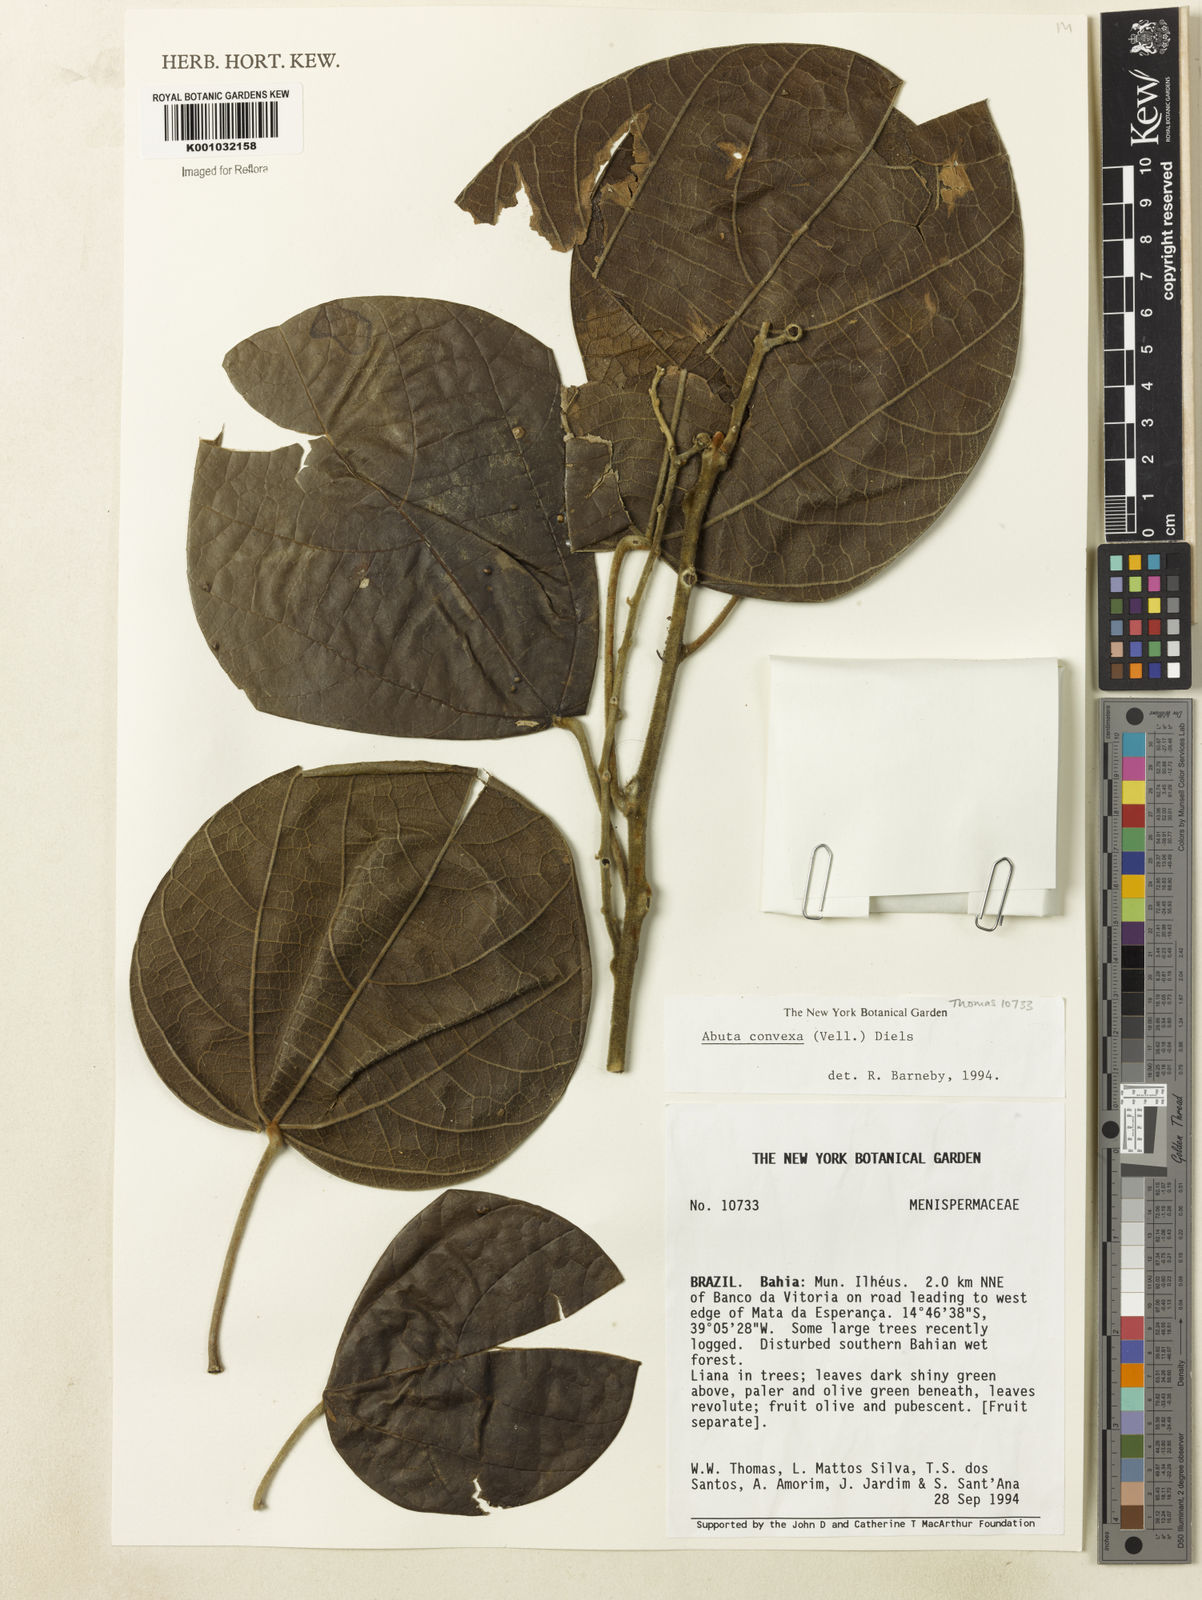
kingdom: Plantae
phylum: Tracheophyta
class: Magnoliopsida
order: Ranunculales
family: Menispermaceae
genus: Abuta
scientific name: Abuta rufescens
